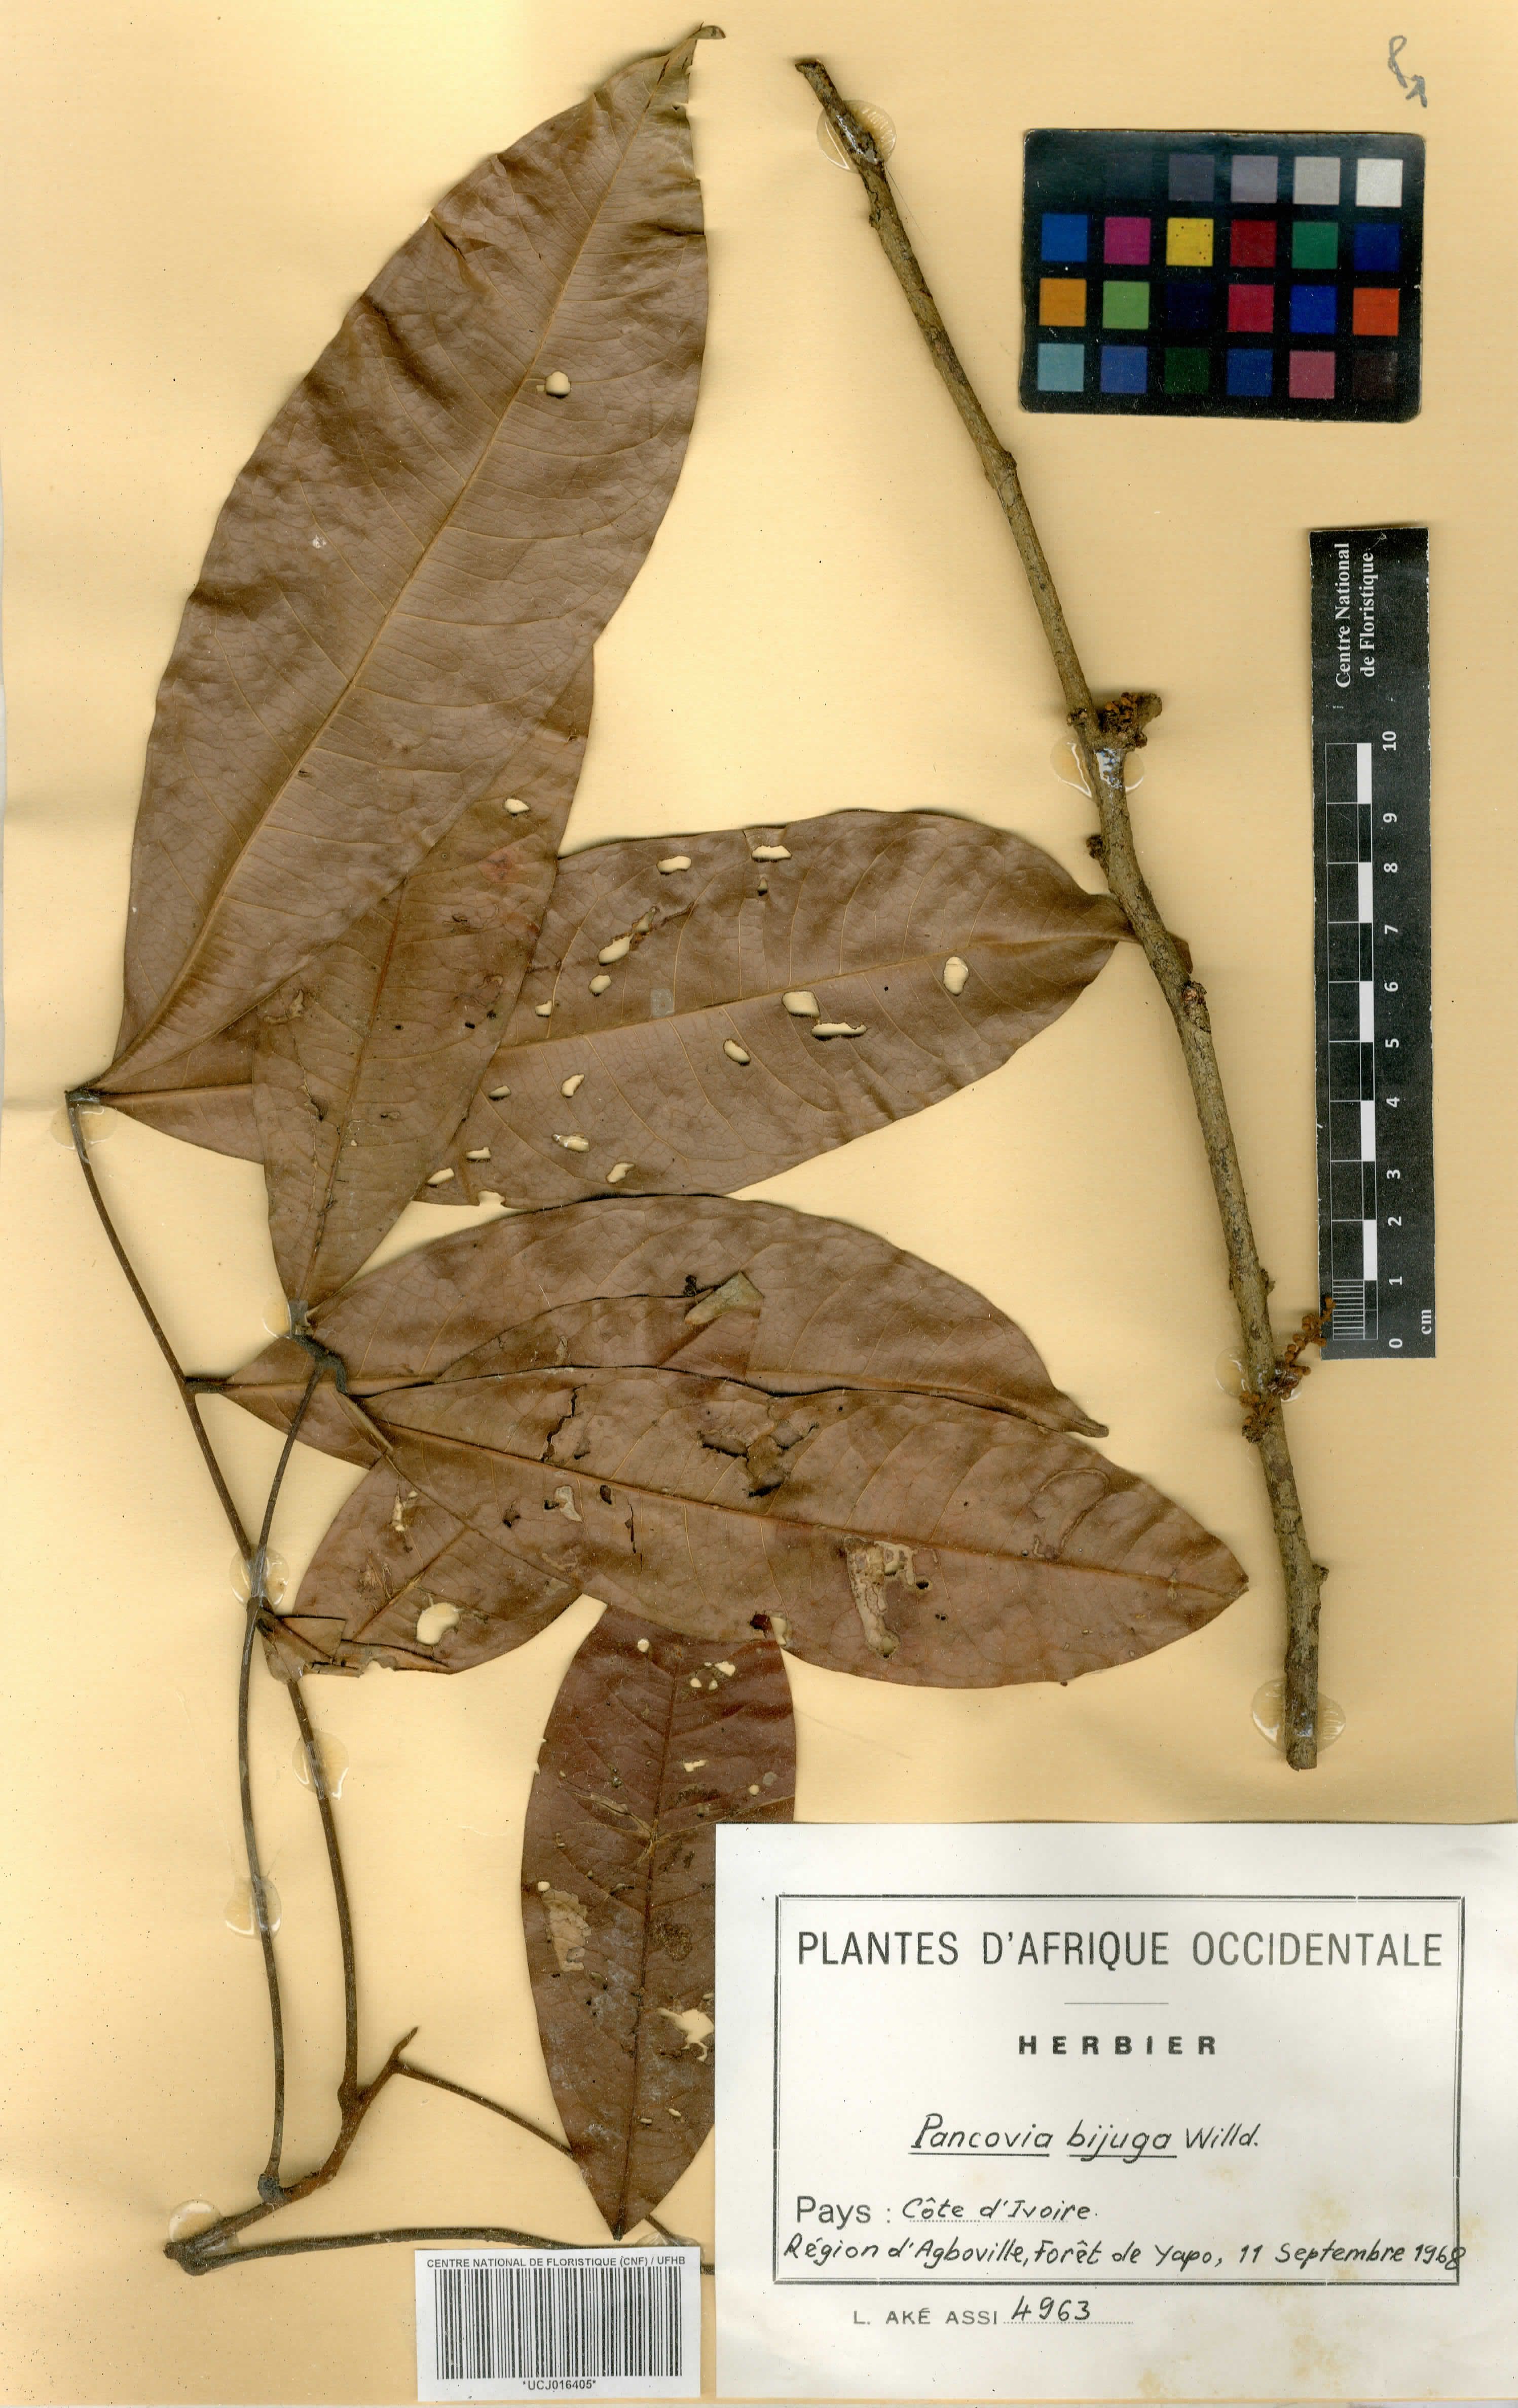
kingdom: Plantae
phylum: Tracheophyta
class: Magnoliopsida
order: Sapindales
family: Sapindaceae
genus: Pancovia
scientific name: Pancovia bijuga
